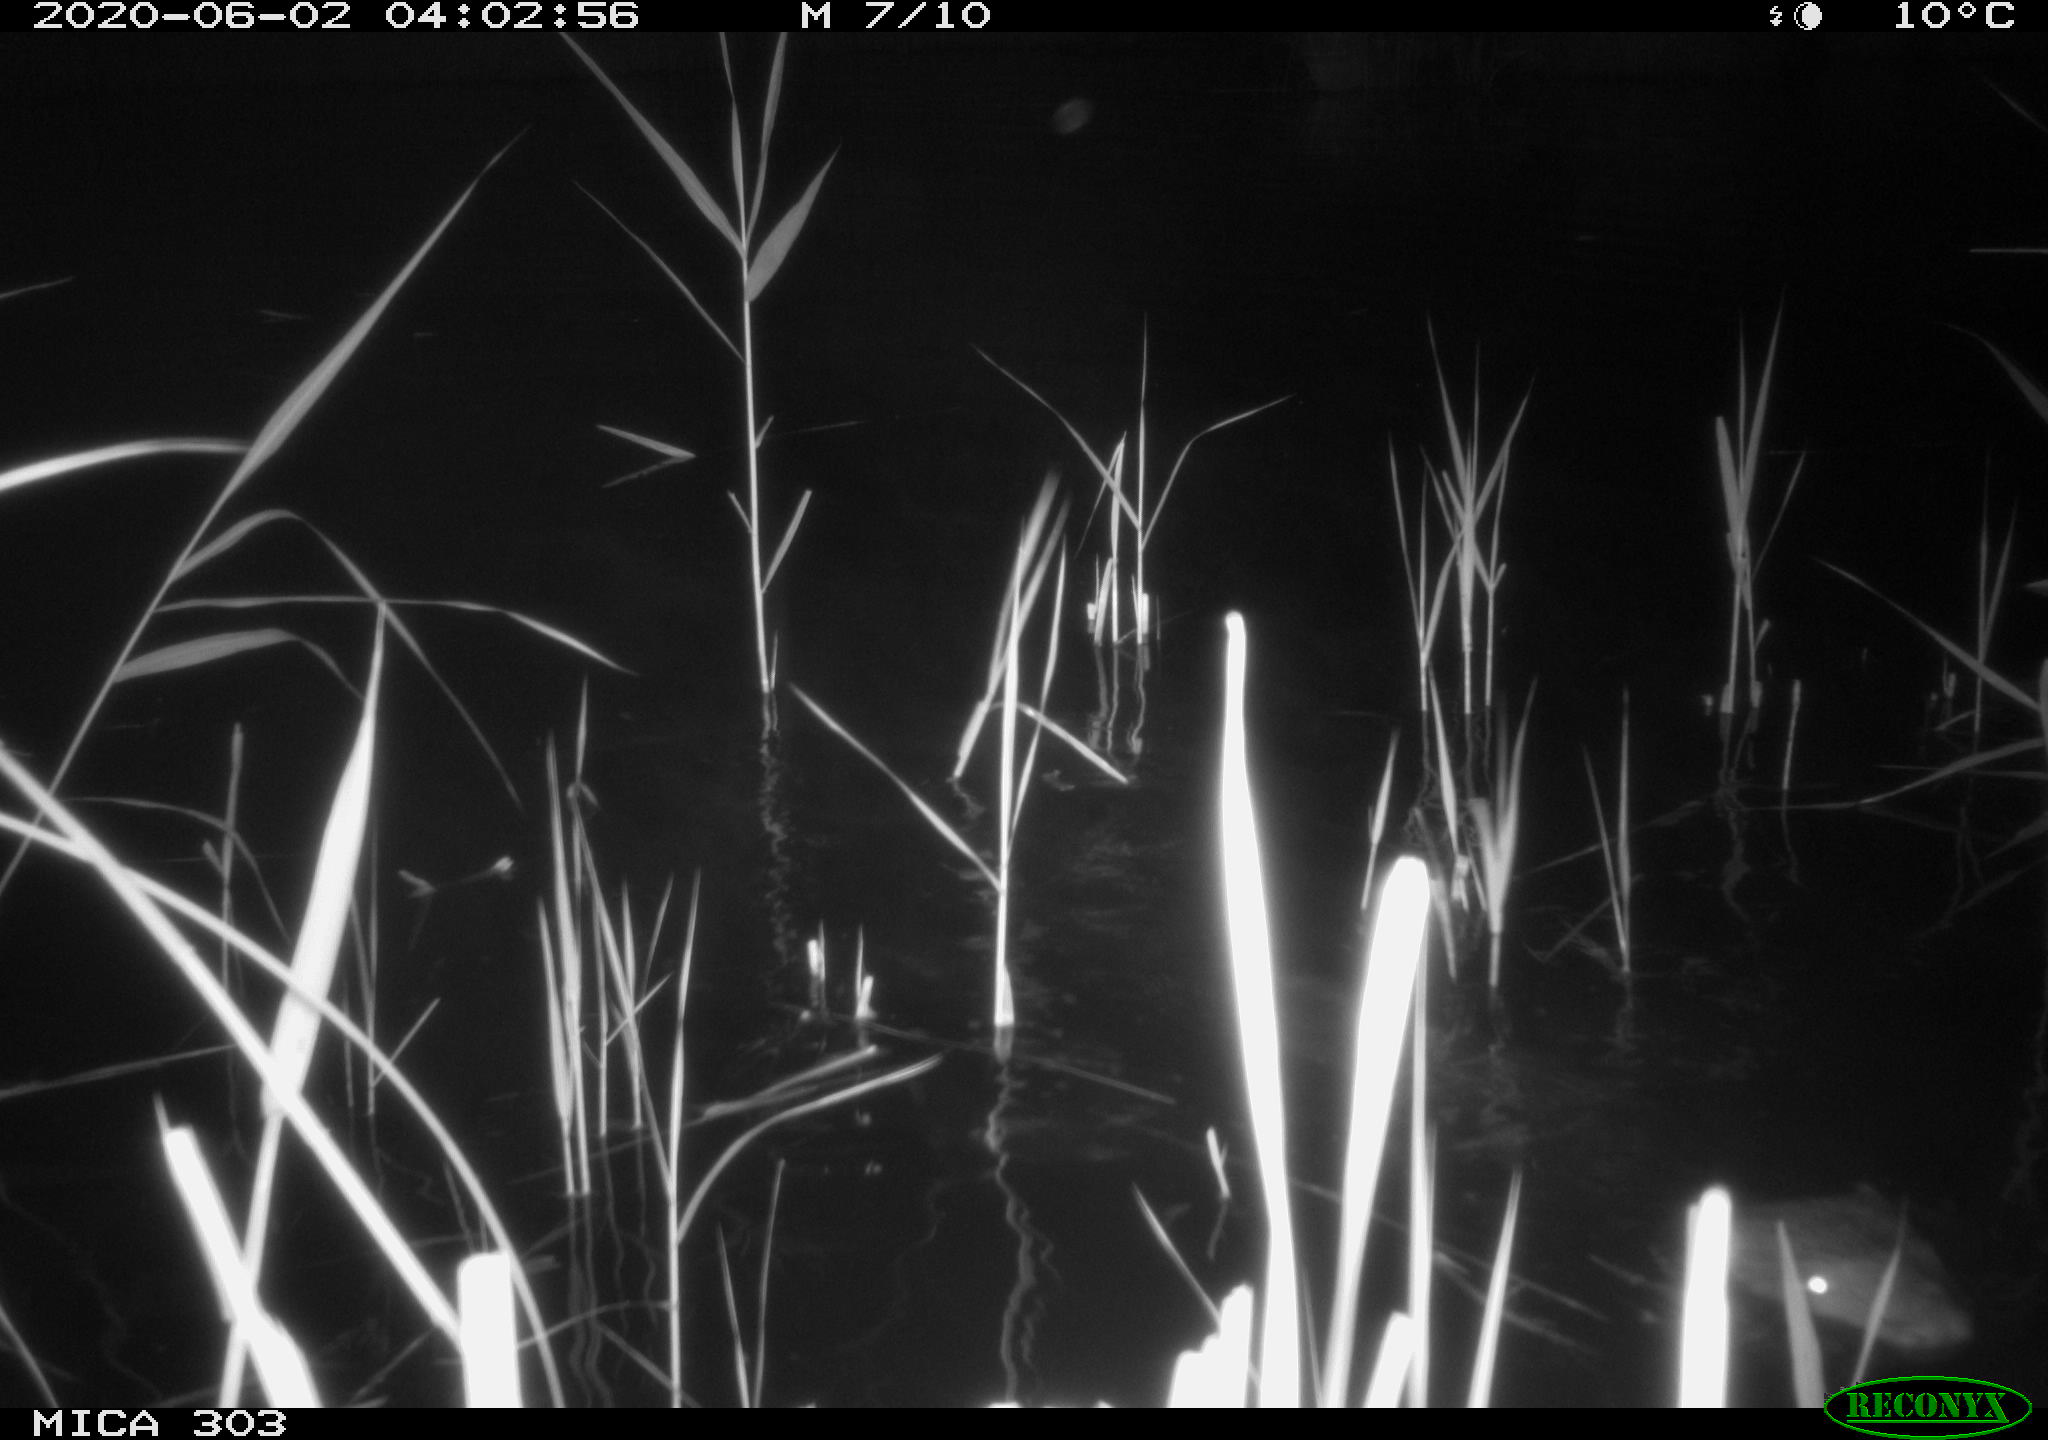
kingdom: Animalia
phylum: Chordata
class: Mammalia
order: Rodentia
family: Castoridae
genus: Castor
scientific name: Castor fiber
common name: Eurasian beaver
